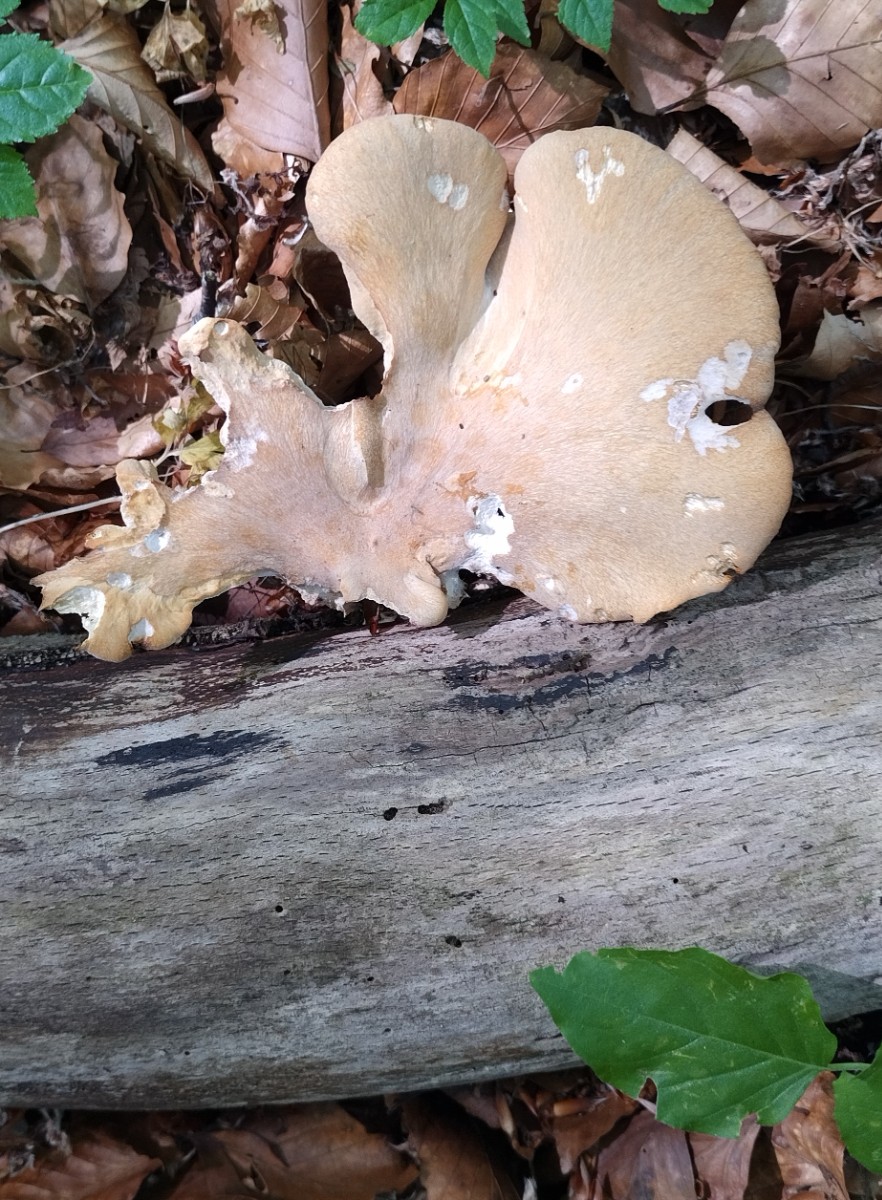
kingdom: Fungi
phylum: Basidiomycota
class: Agaricomycetes
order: Polyporales
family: Polyporaceae
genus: Cerioporus
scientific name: Cerioporus varius
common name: foranderlig stilkporesvamp
